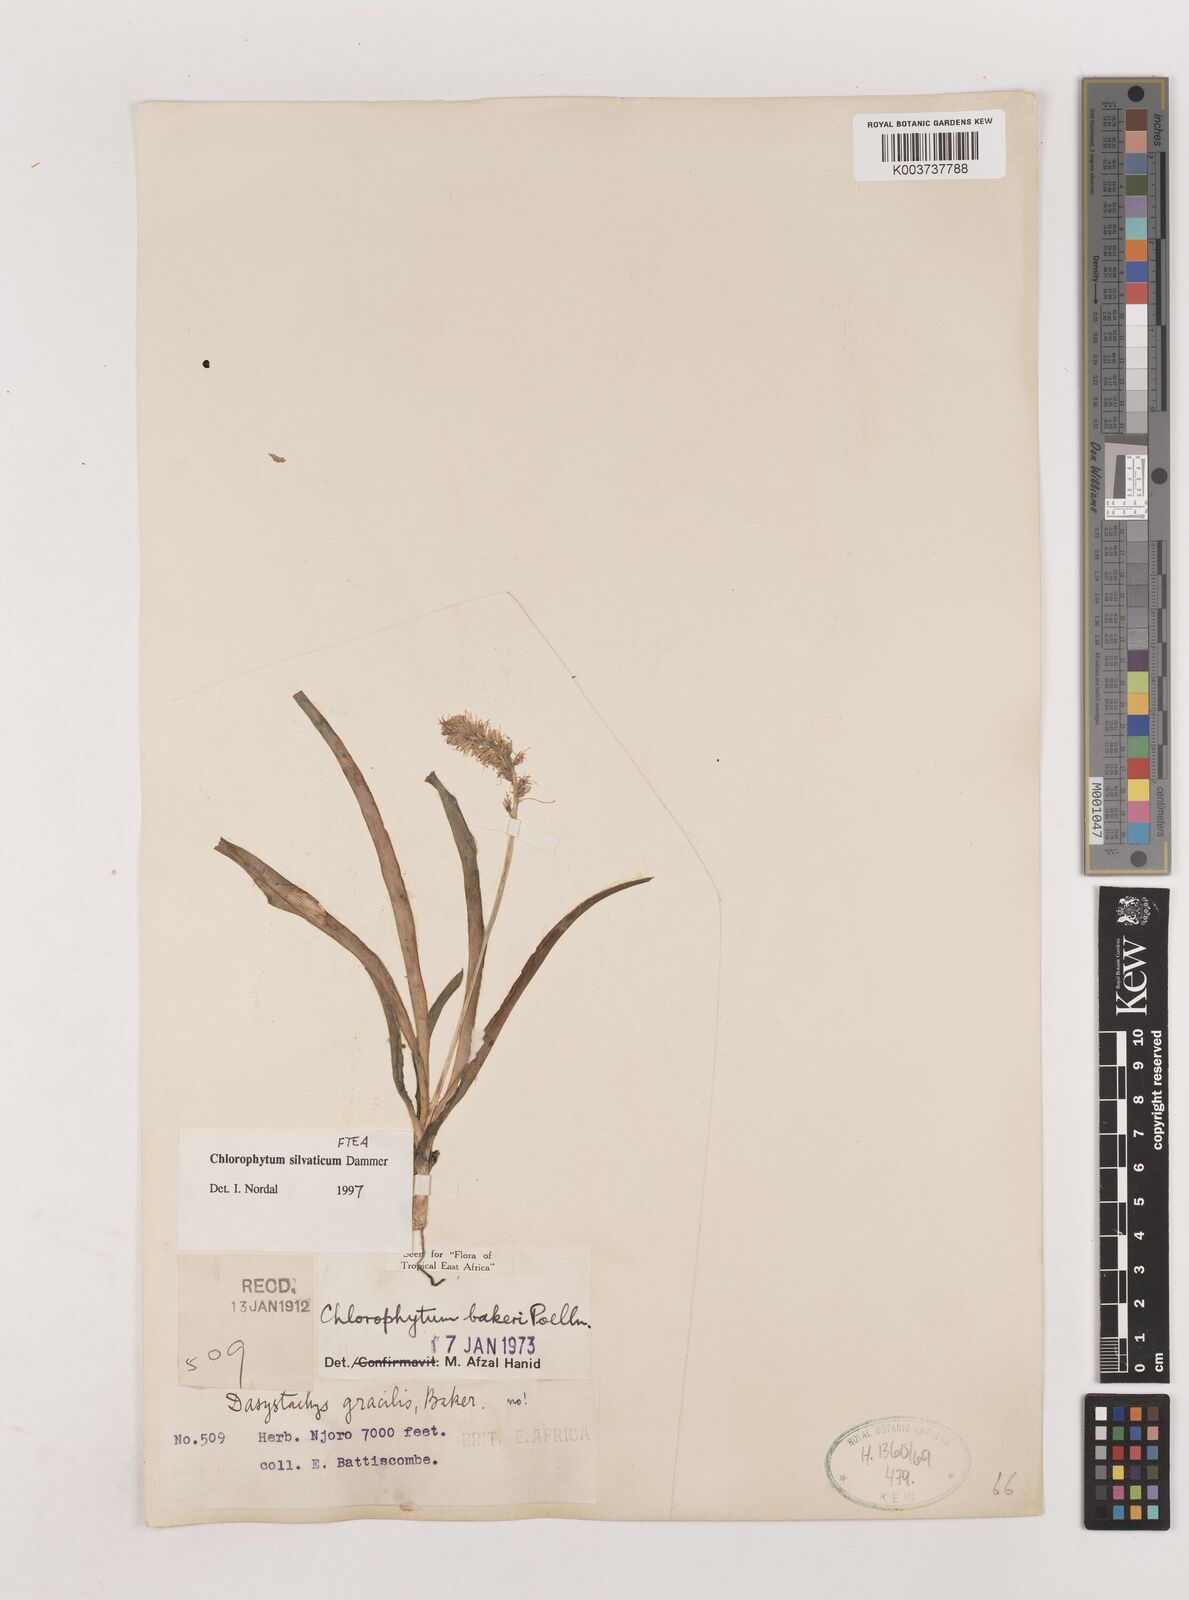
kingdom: Plantae
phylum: Tracheophyta
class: Liliopsida
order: Asparagales
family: Asparagaceae
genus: Chlorophytum
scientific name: Chlorophytum africanum
